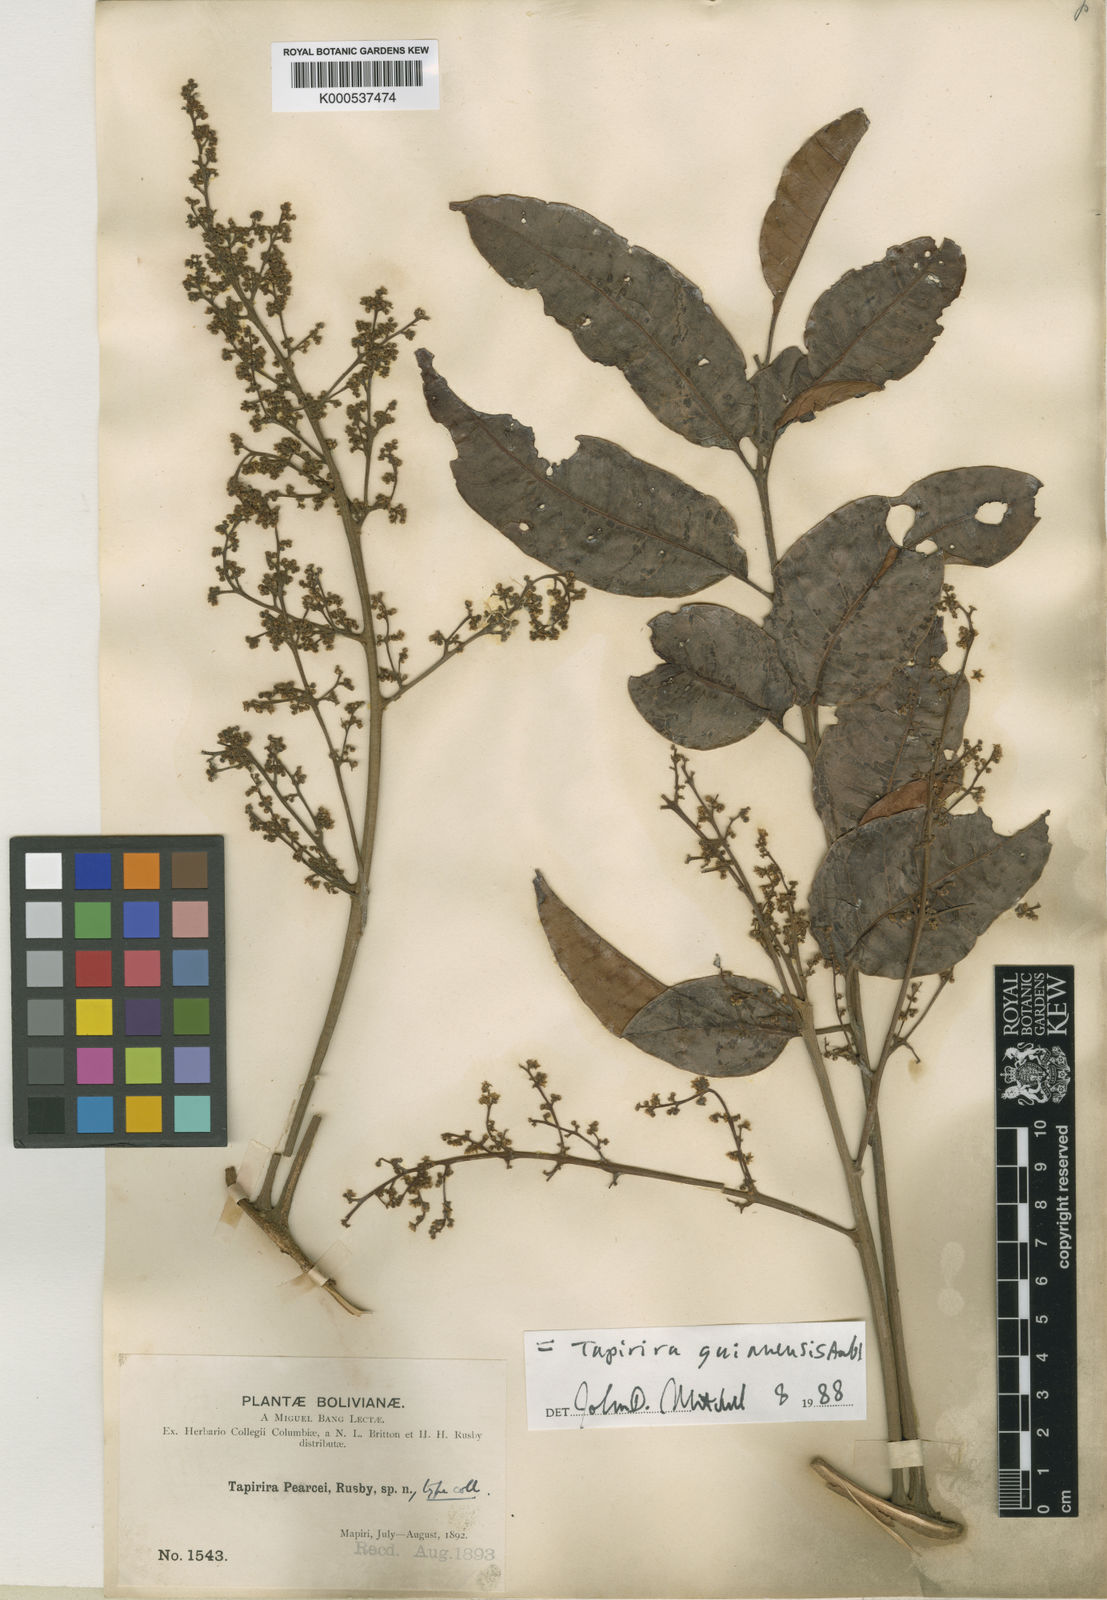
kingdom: Plantae
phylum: Tracheophyta
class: Magnoliopsida
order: Sapindales
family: Anacardiaceae
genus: Tapirira
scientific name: Tapirira guianensis
